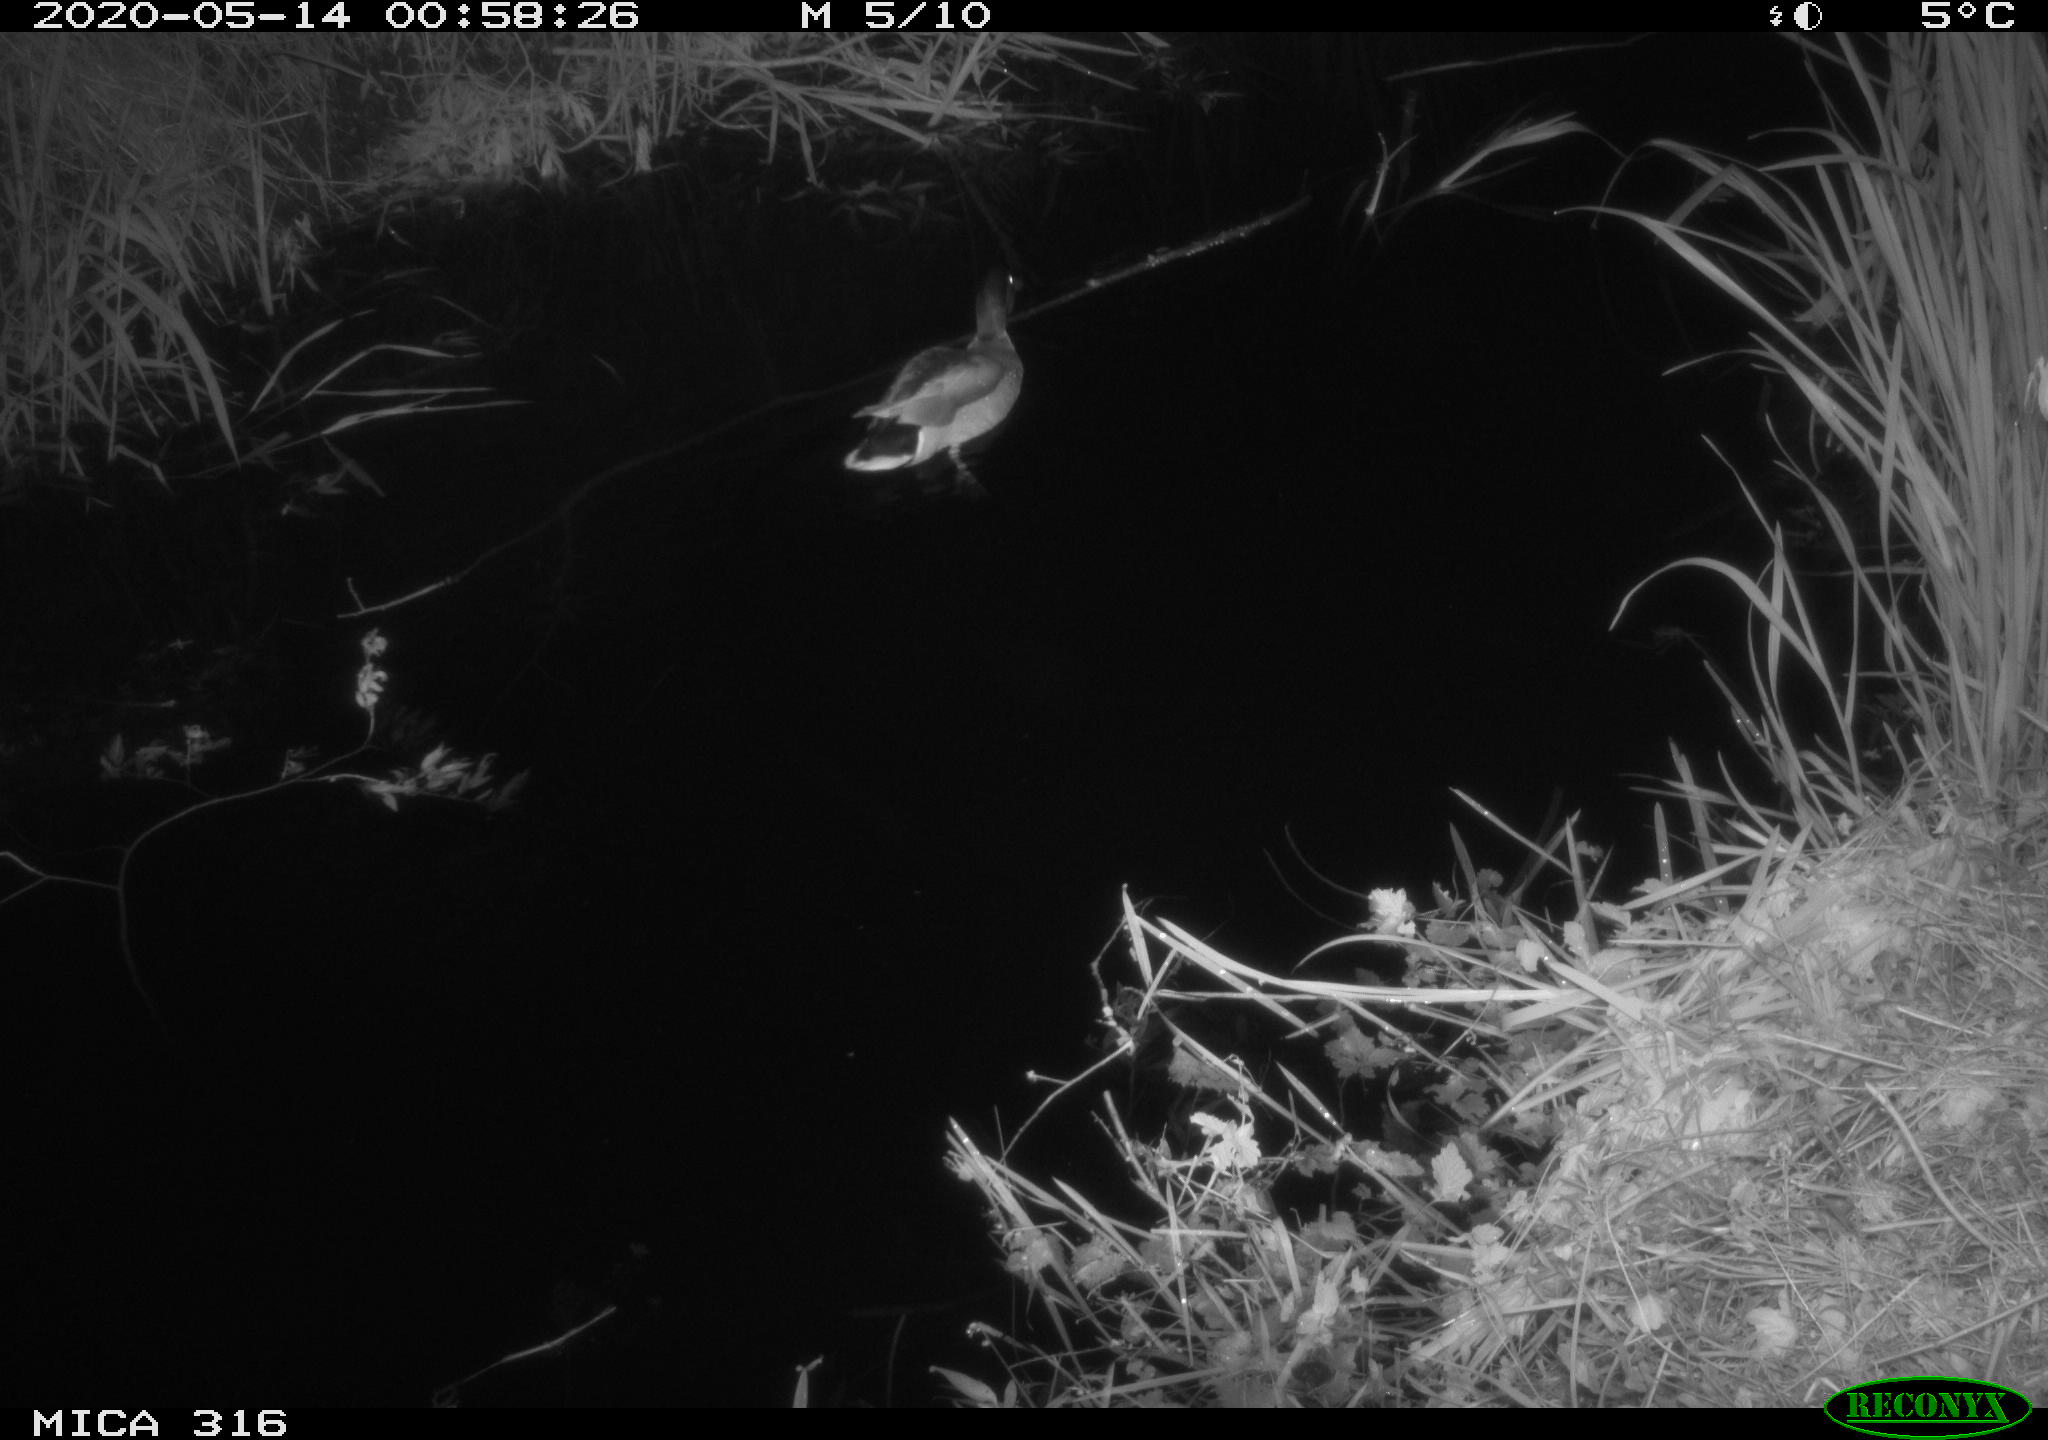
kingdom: Animalia
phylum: Chordata
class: Aves
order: Anseriformes
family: Anatidae
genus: Anas
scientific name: Anas platyrhynchos
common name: Mallard
